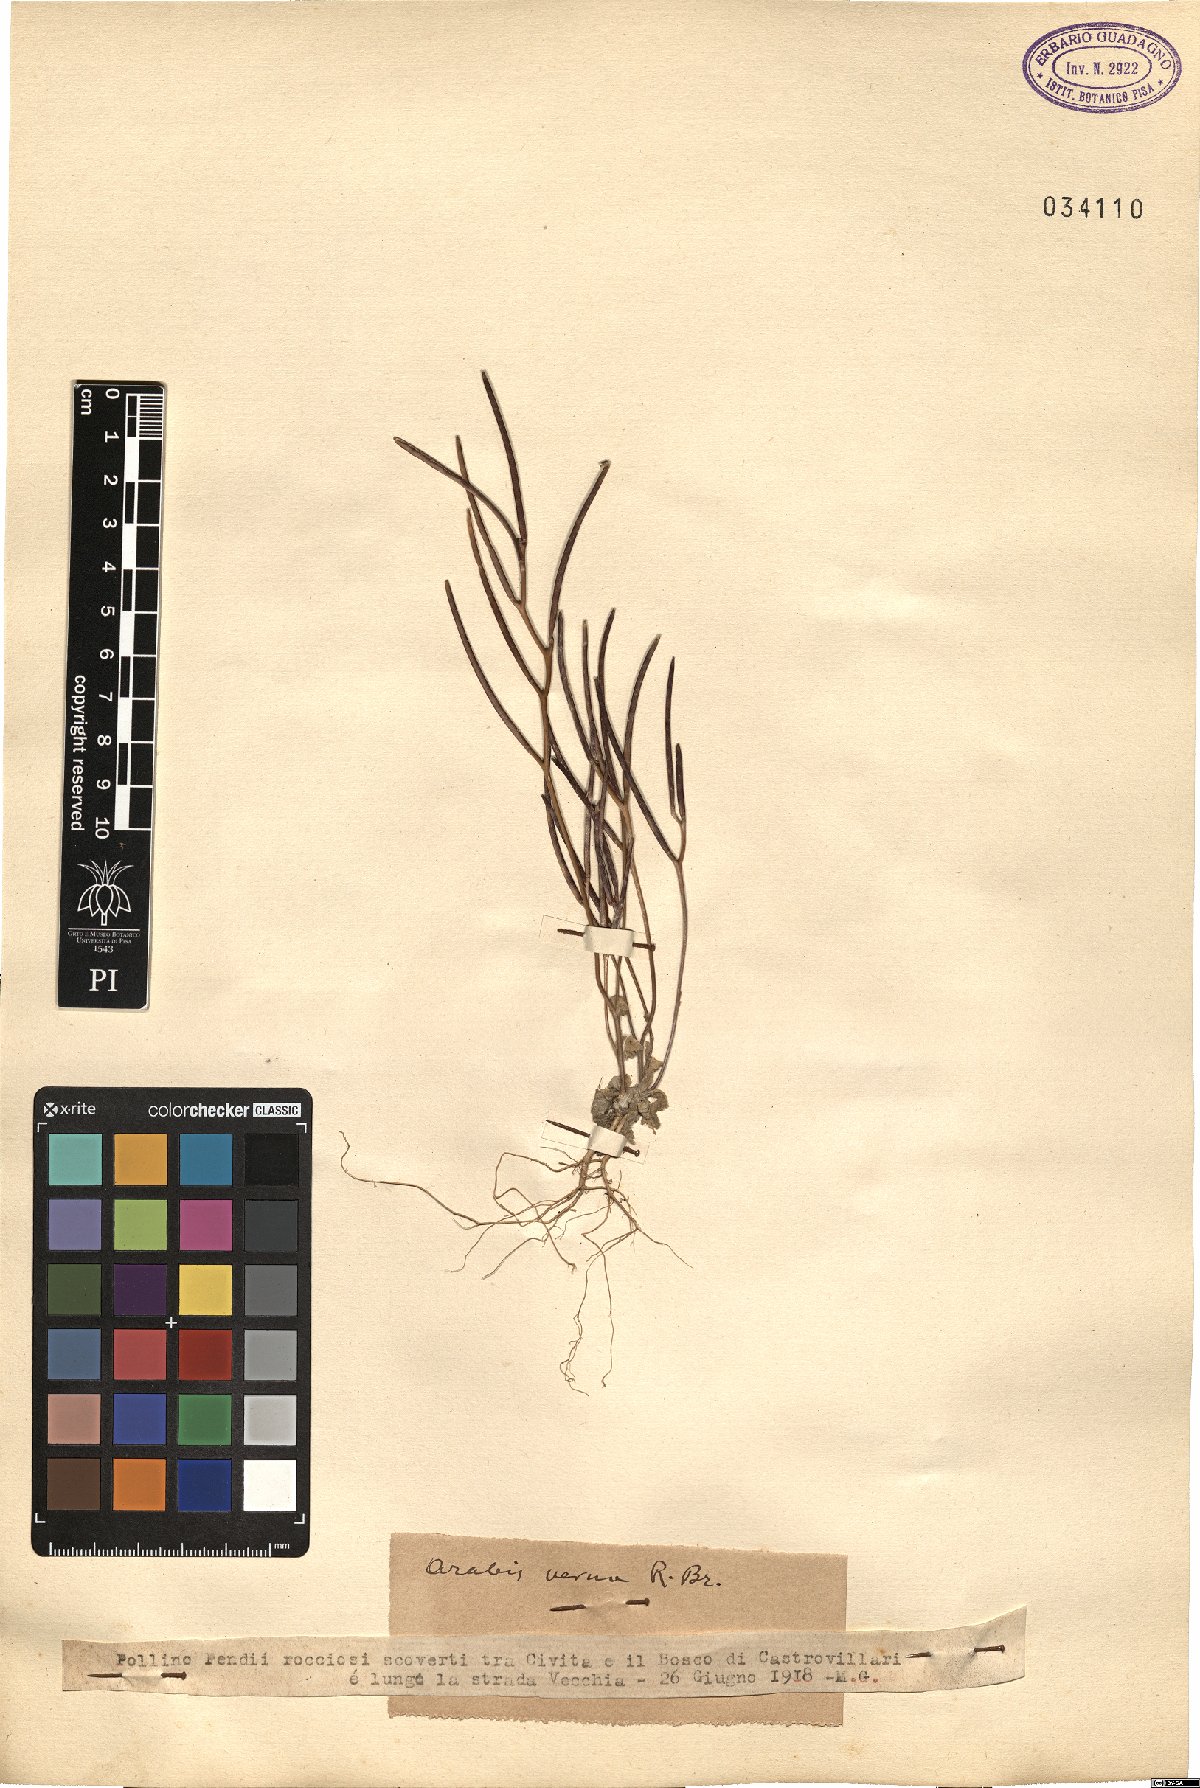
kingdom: Plantae
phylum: Tracheophyta
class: Magnoliopsida
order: Brassicales
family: Brassicaceae
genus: Arabis
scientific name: Arabis verna
